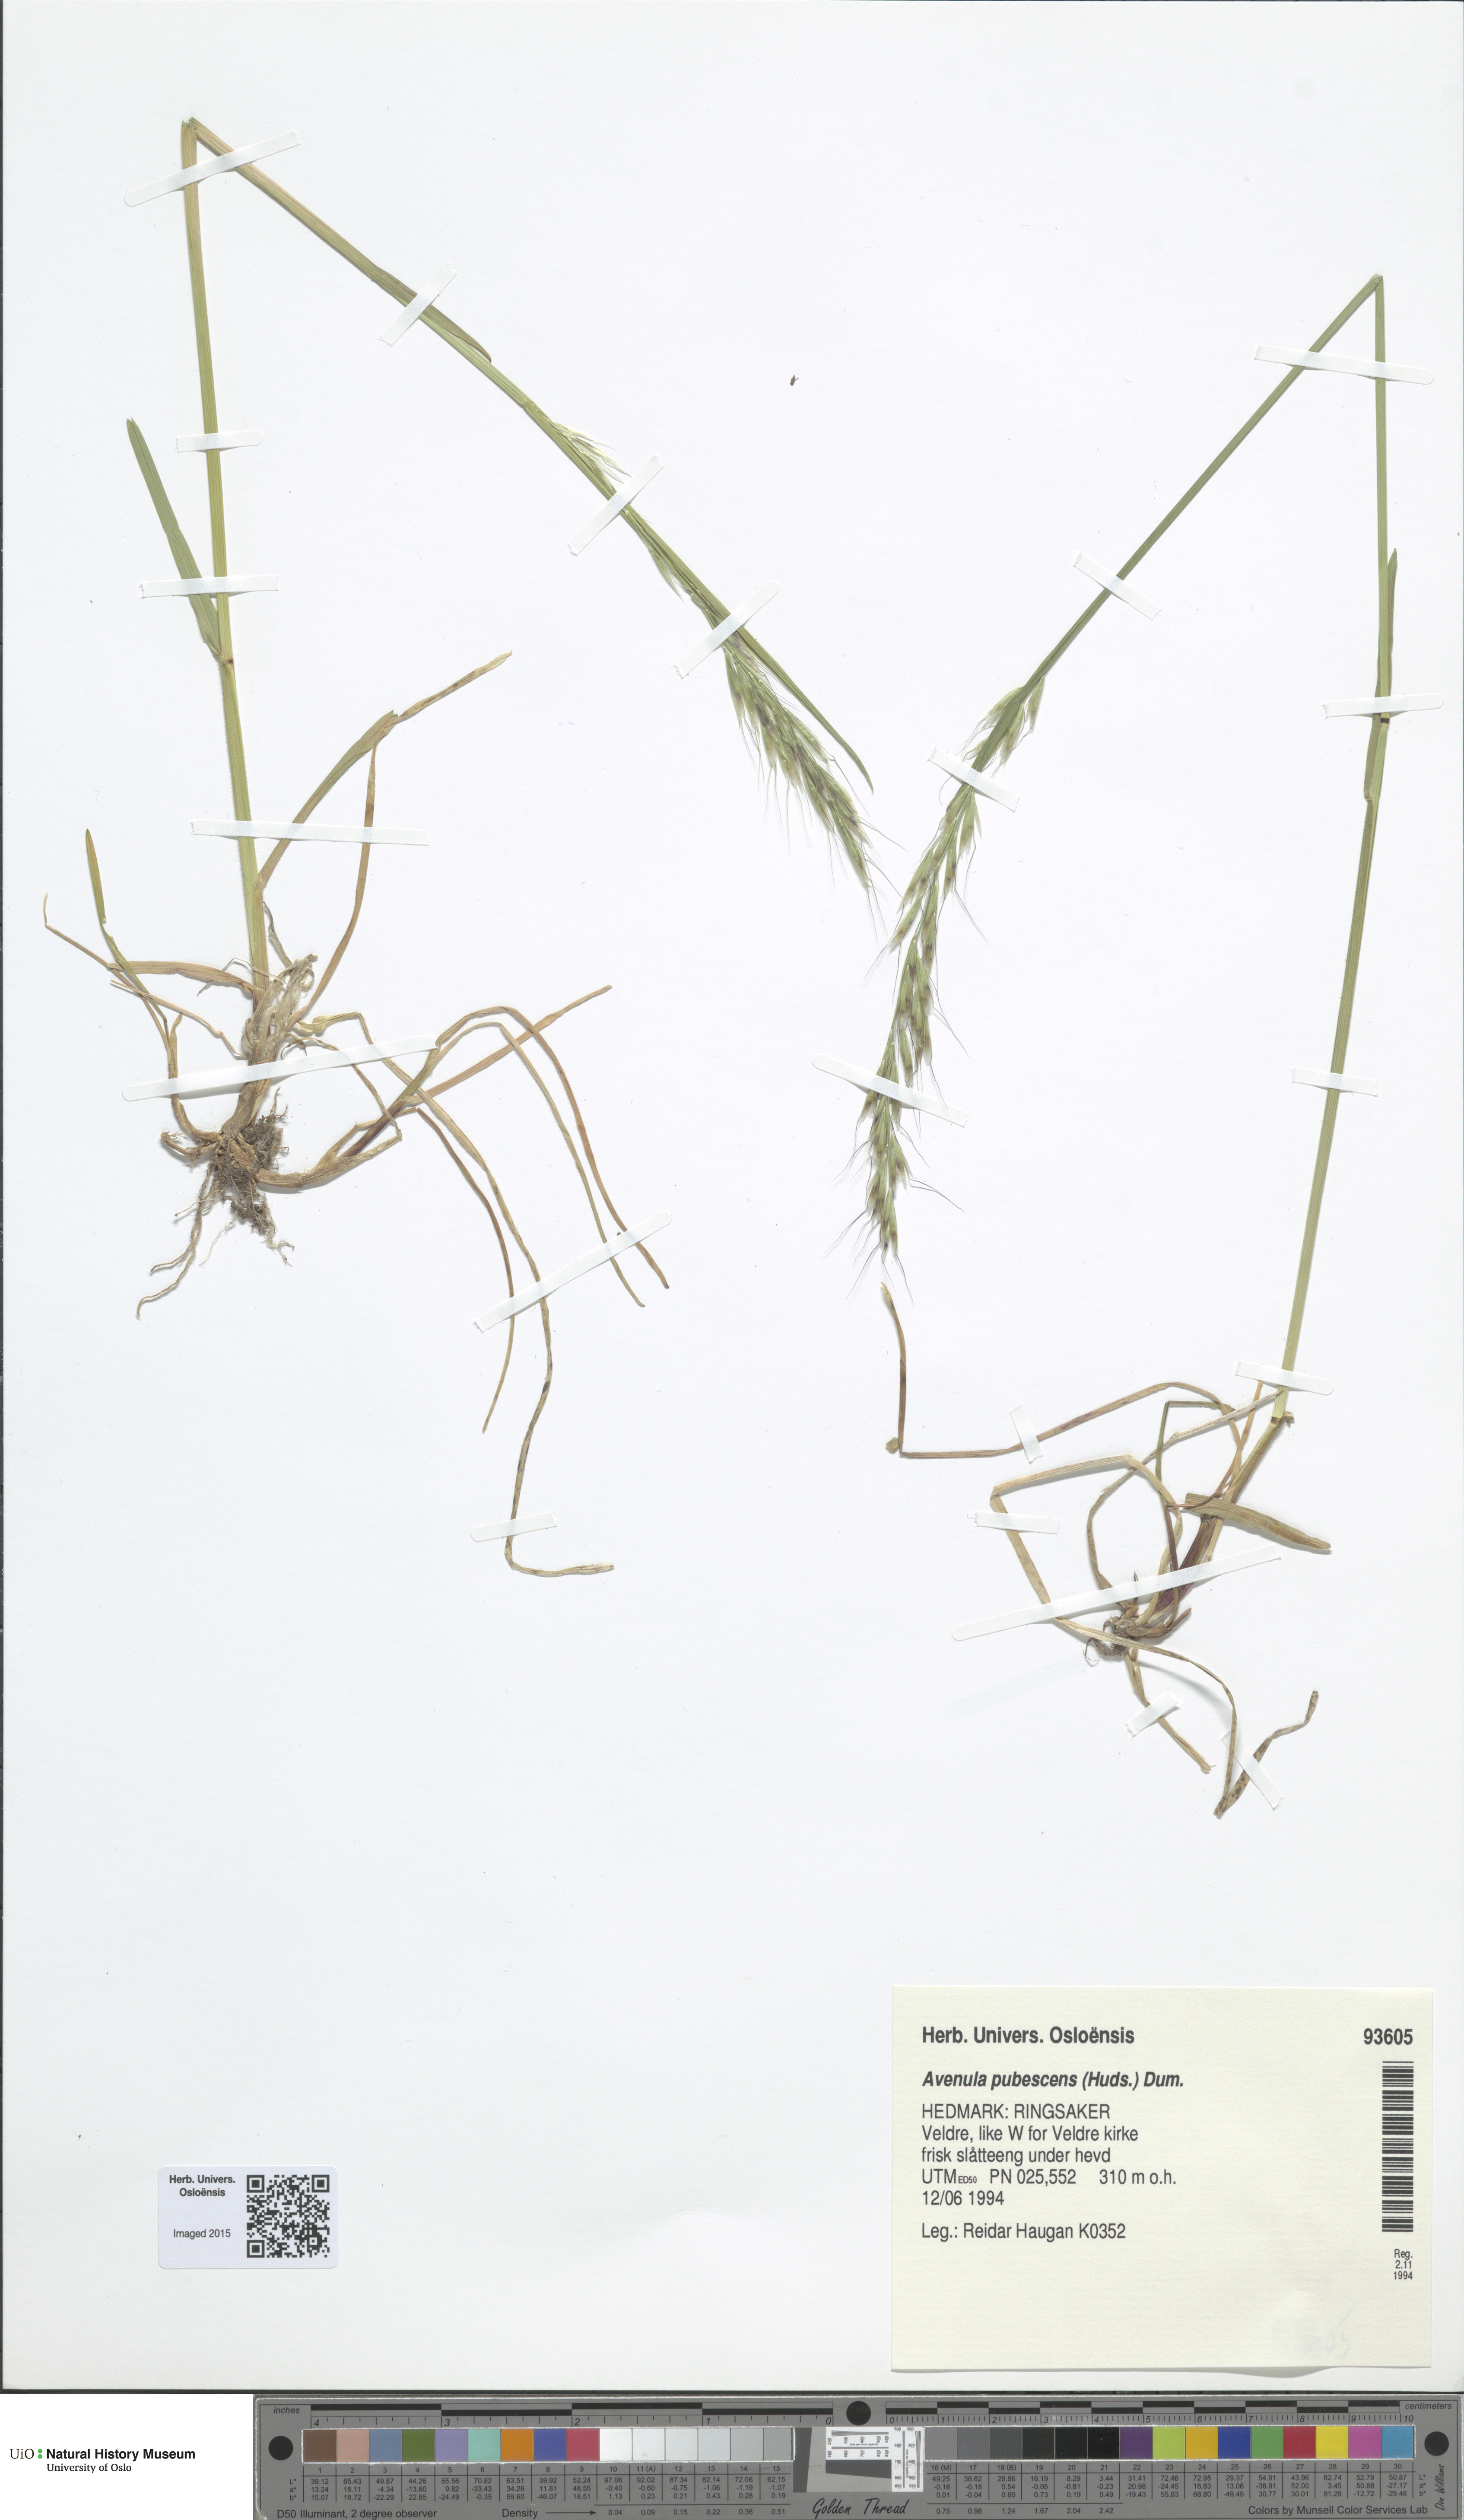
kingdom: Plantae
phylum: Tracheophyta
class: Liliopsida
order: Poales
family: Poaceae
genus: Avenula
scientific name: Avenula pubescens
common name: Downy alpine oatgrass
